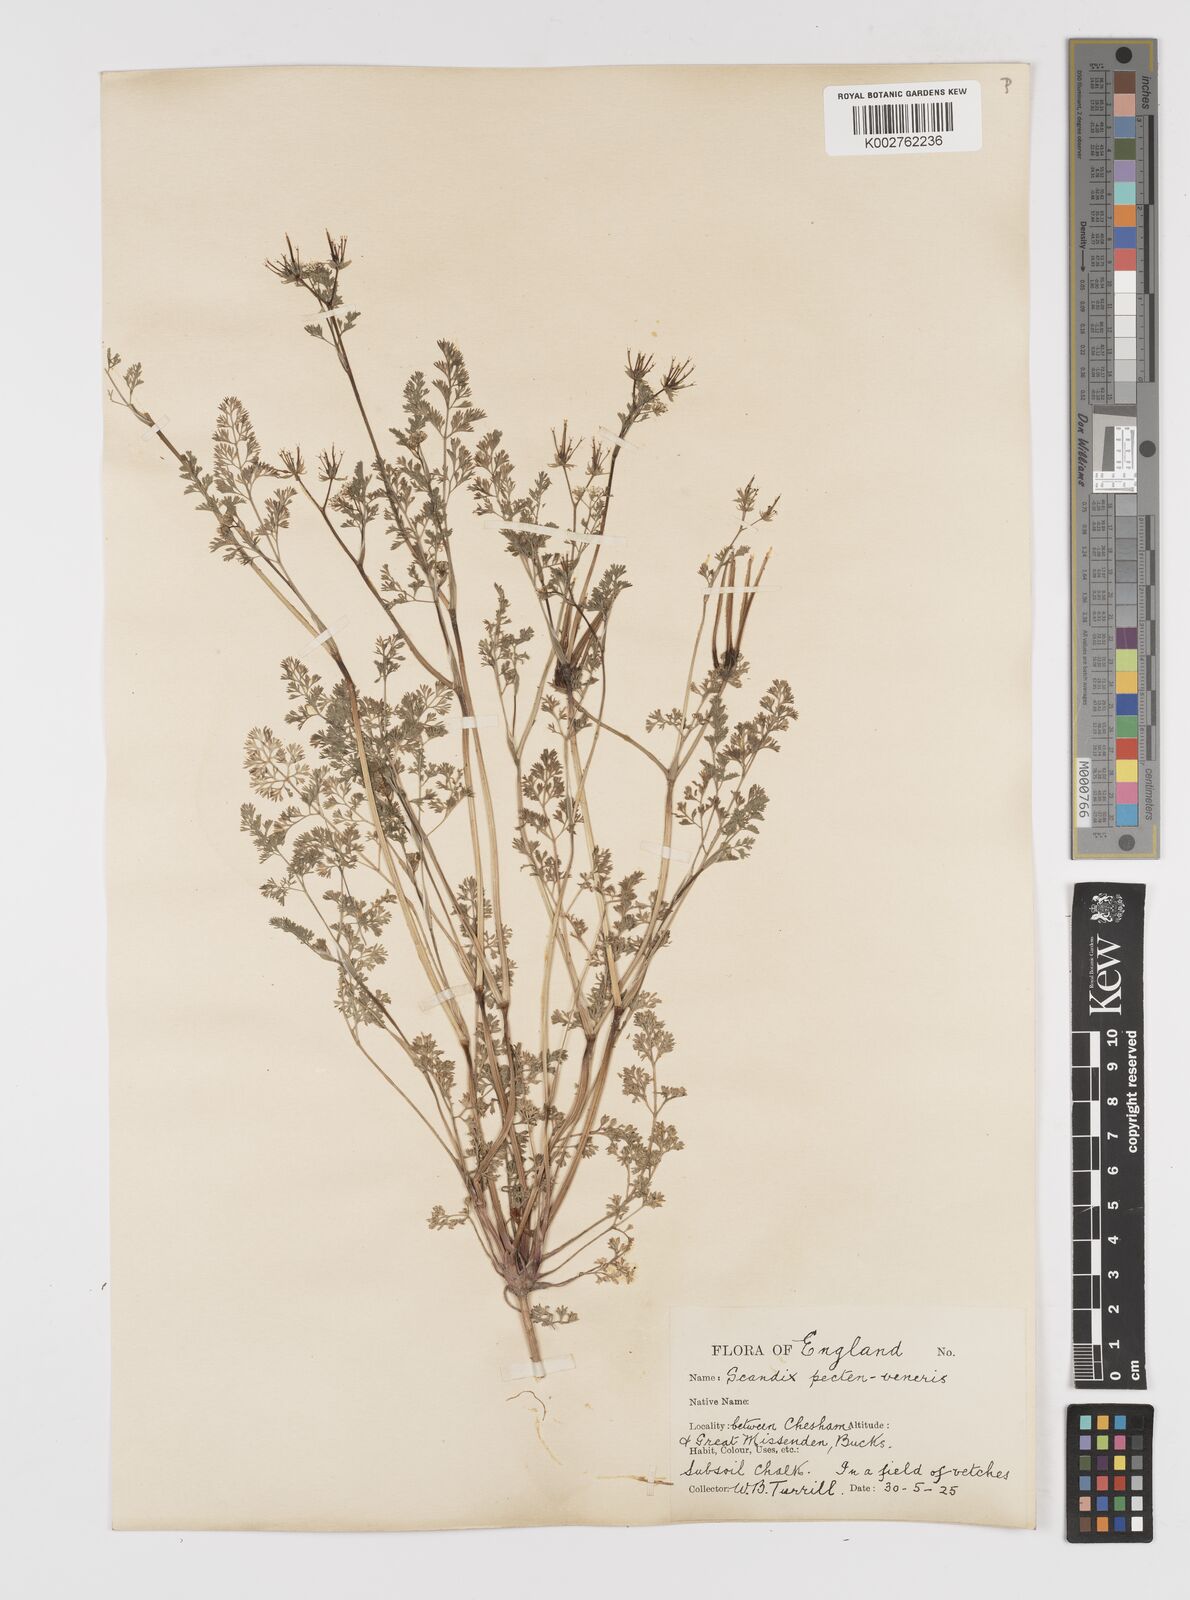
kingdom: Plantae
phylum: Tracheophyta
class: Magnoliopsida
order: Apiales
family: Apiaceae
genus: Scandix
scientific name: Scandix pecten-veneris
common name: Shepherd's-needle
